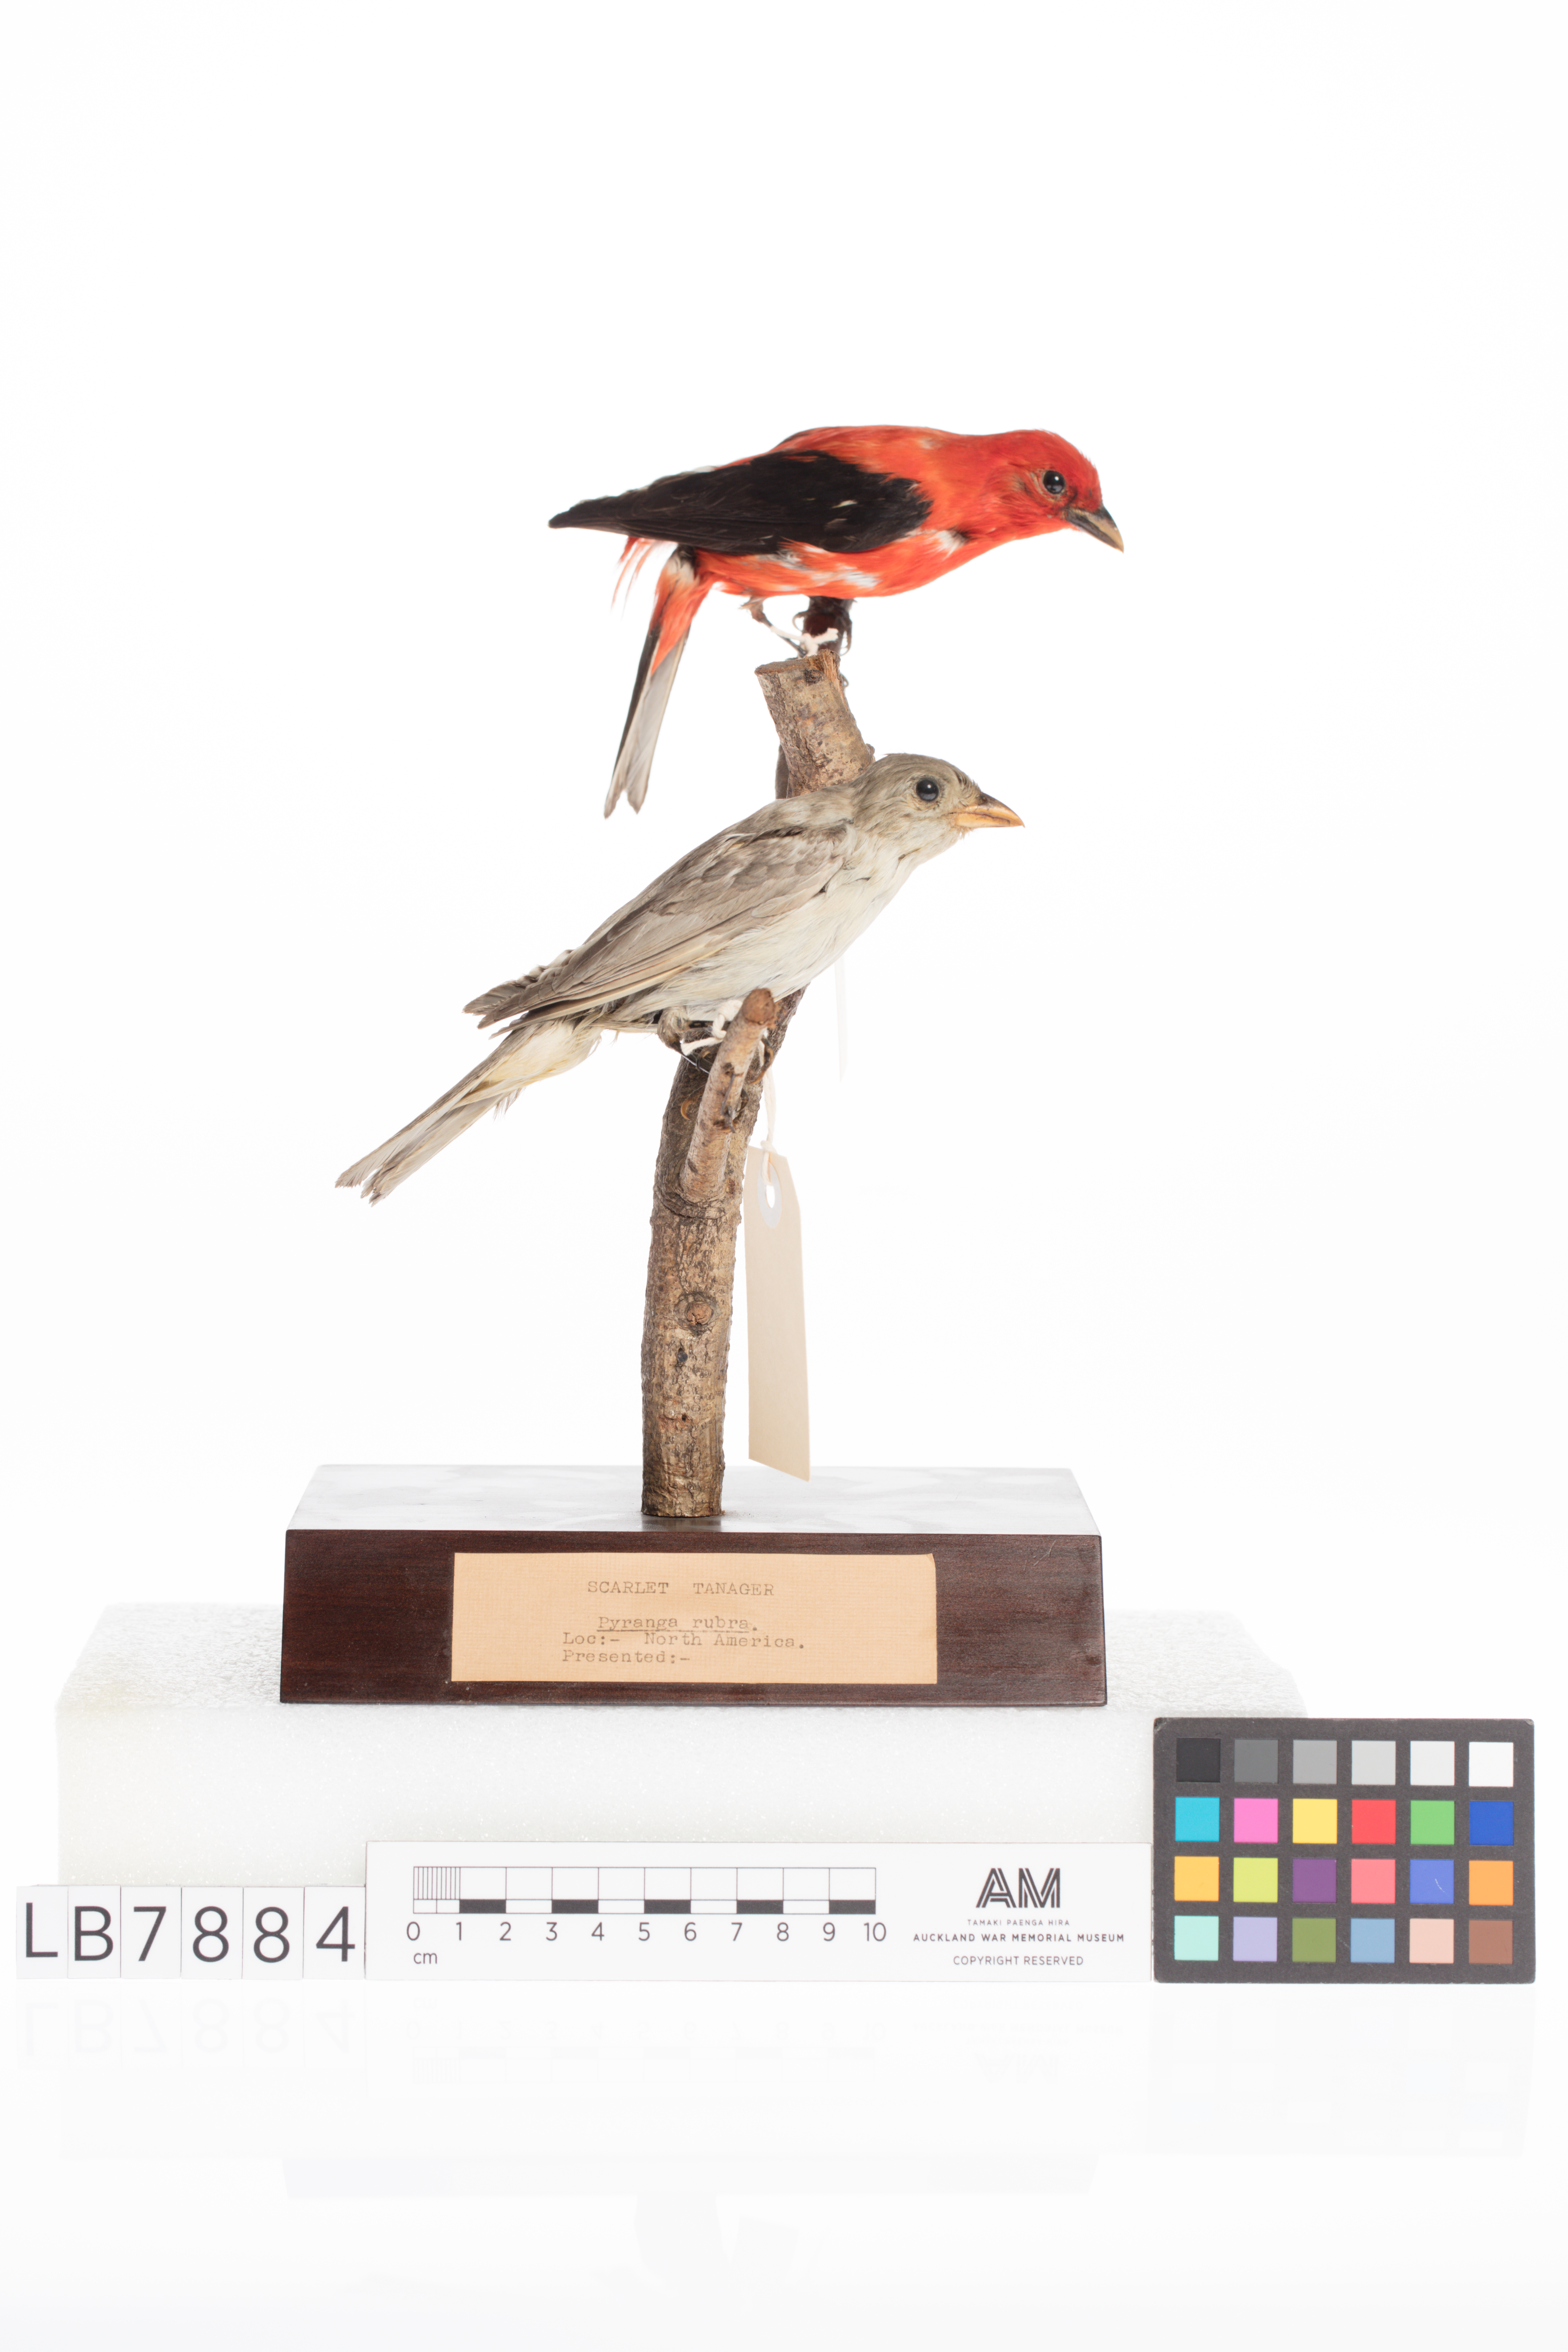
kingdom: Animalia
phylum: Chordata
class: Aves
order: Passeriformes
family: Cardinalidae
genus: Piranga
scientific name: Piranga rubra
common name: Summer tanager
